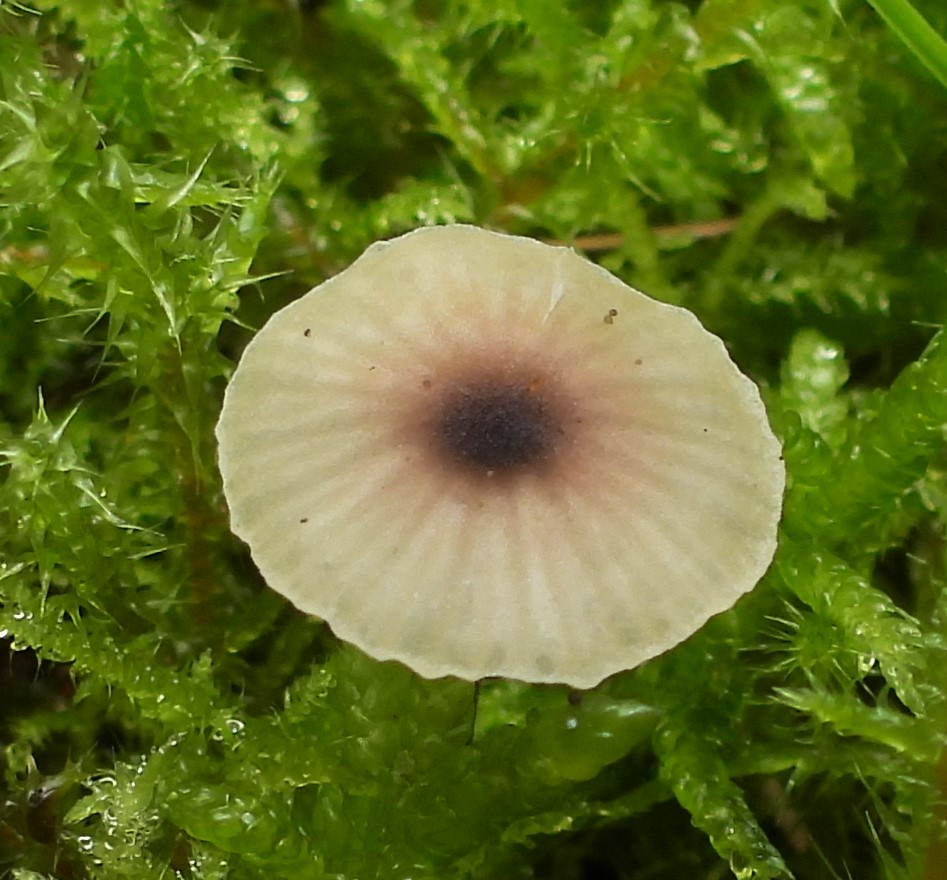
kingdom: Fungi
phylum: Basidiomycota
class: Agaricomycetes
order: Hymenochaetales
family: Rickenellaceae
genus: Rickenella
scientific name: Rickenella swartzii
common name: finstokket mosnavlehat
